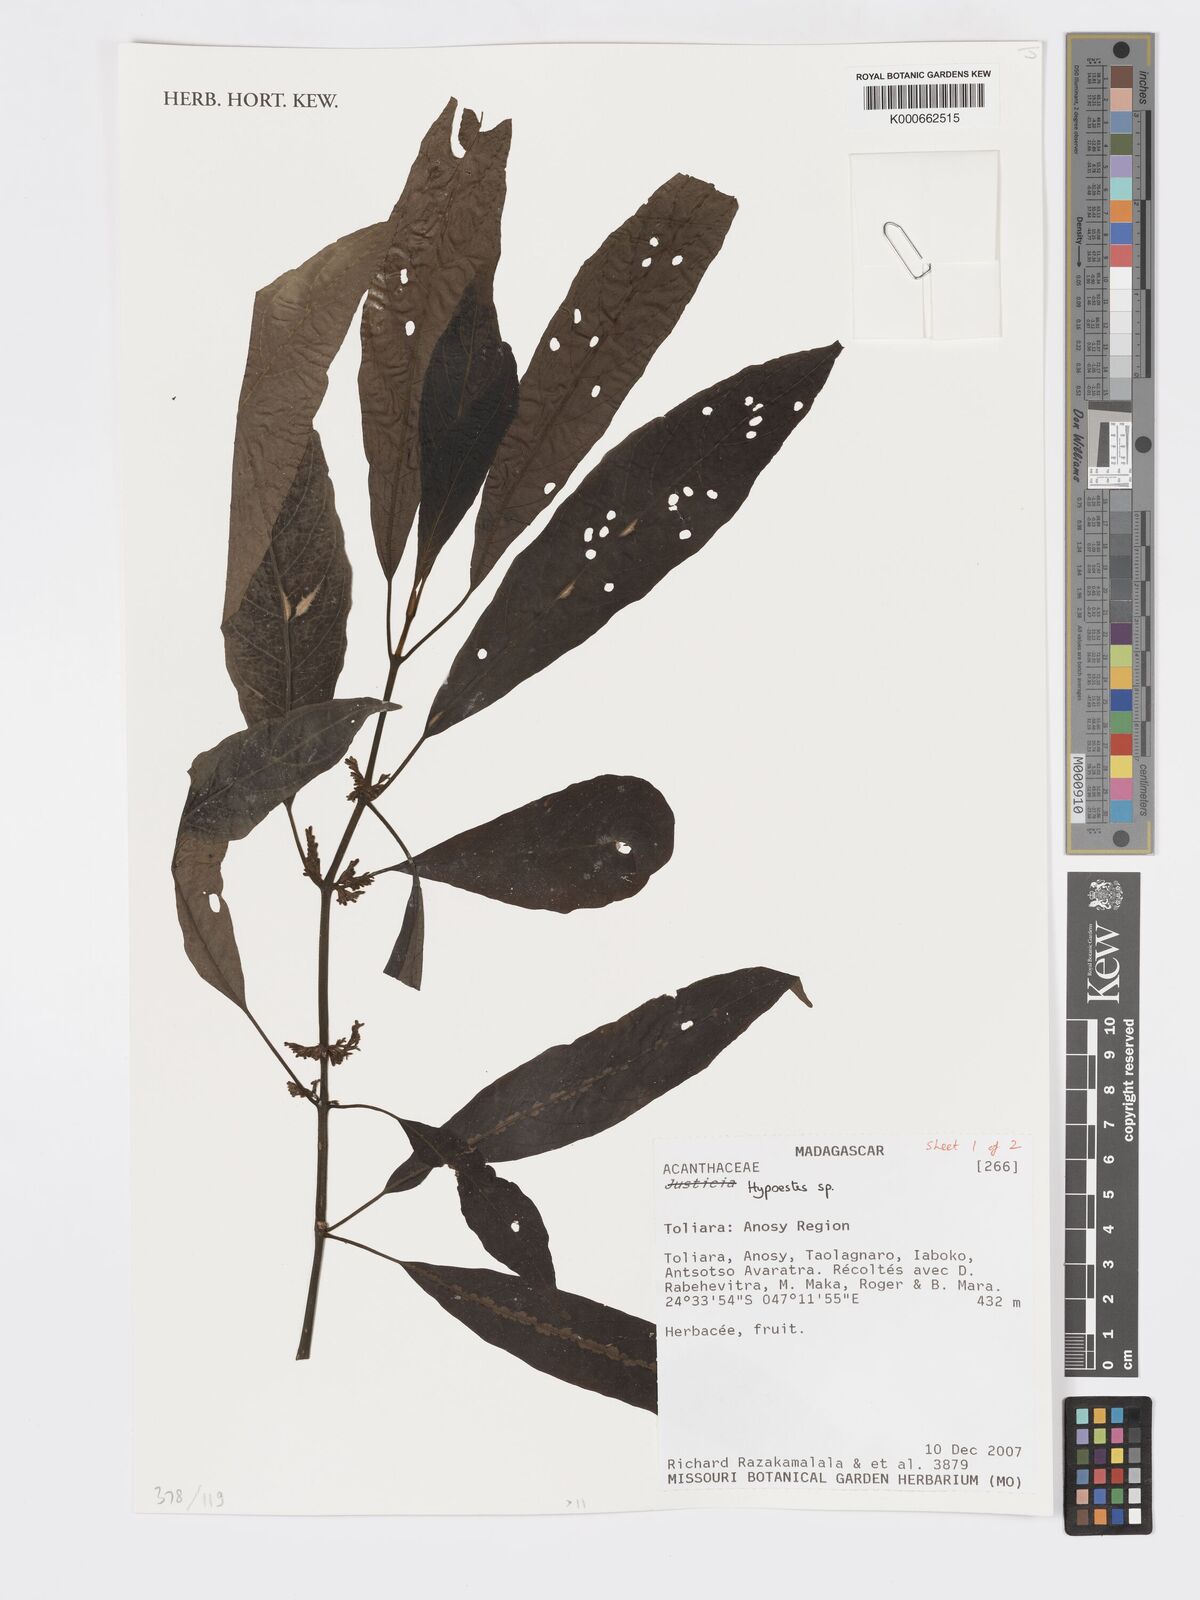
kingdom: Plantae
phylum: Tracheophyta
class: Magnoliopsida
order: Lamiales
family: Acanthaceae
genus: Hypoestes
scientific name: Hypoestes
